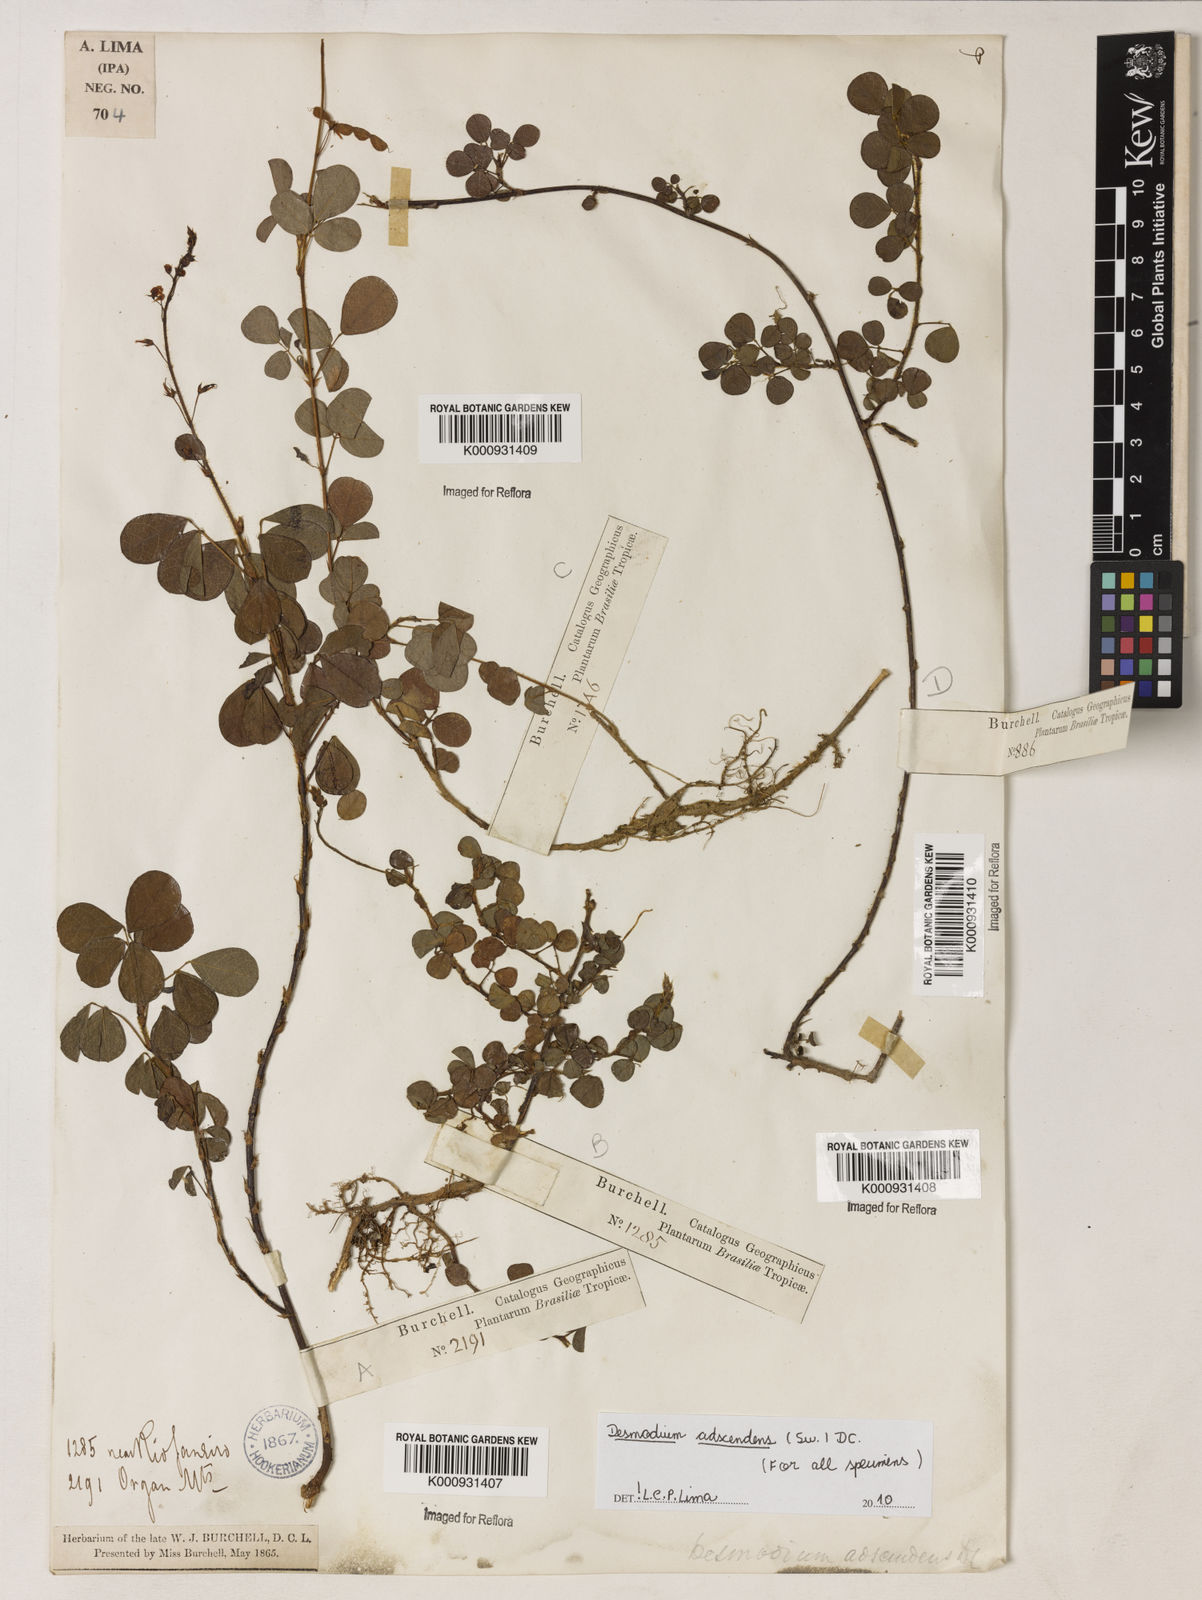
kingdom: Plantae
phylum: Tracheophyta
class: Magnoliopsida
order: Fabales
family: Fabaceae
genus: Grona
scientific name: Grona adscendens
